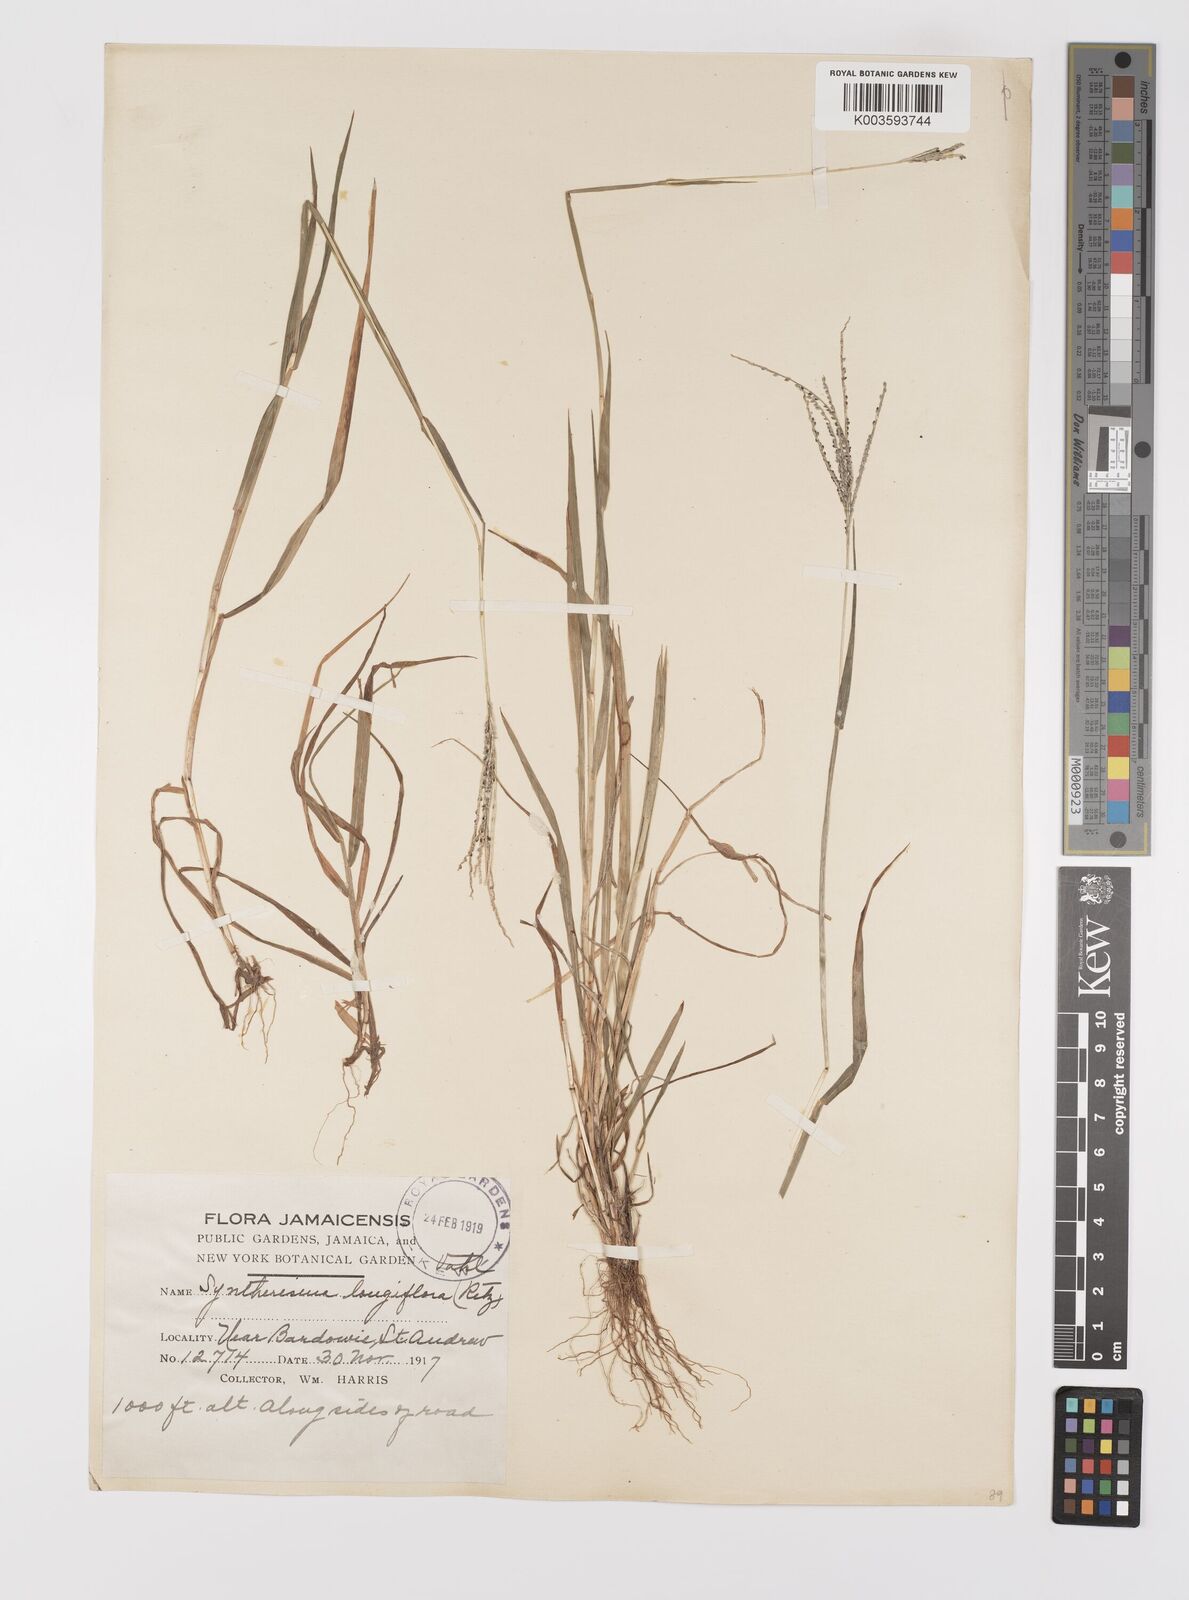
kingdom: Plantae
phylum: Tracheophyta
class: Liliopsida
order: Poales
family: Poaceae
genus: Digitaria
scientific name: Digitaria violascens
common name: Violet crabgrass
